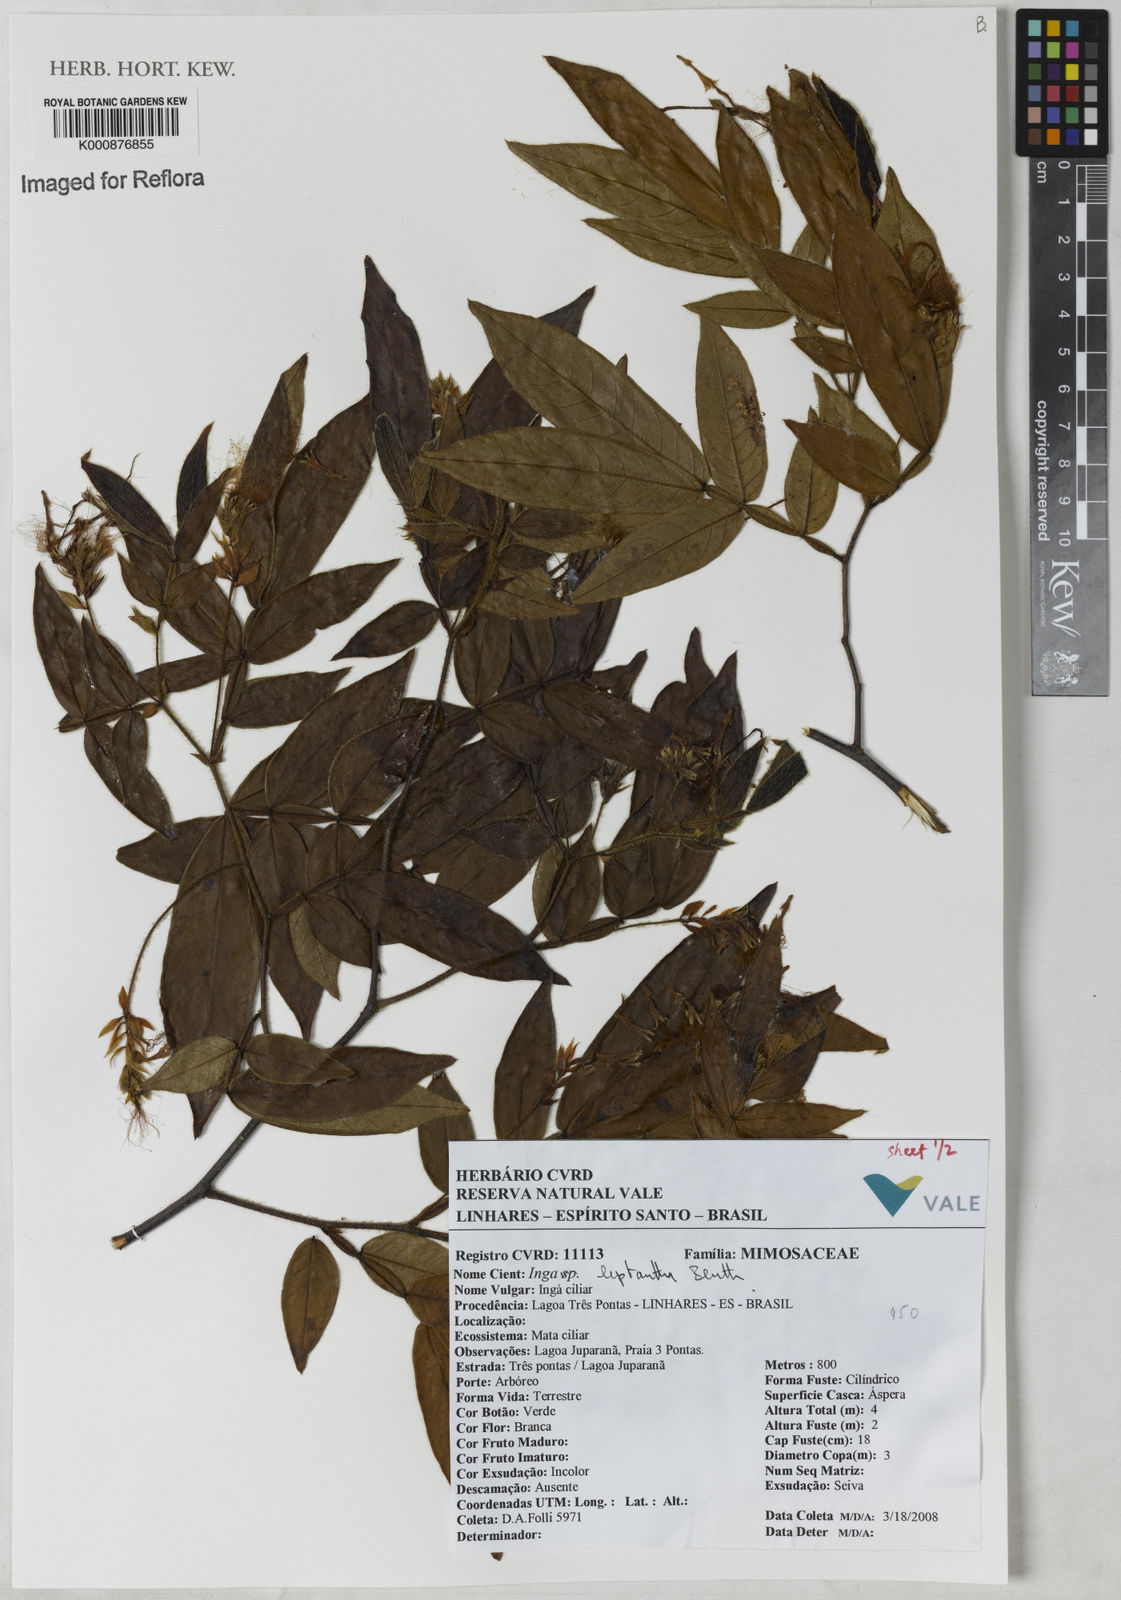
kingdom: Plantae
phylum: Tracheophyta
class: Magnoliopsida
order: Fabales
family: Fabaceae
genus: Inga
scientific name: Inga leptantha
